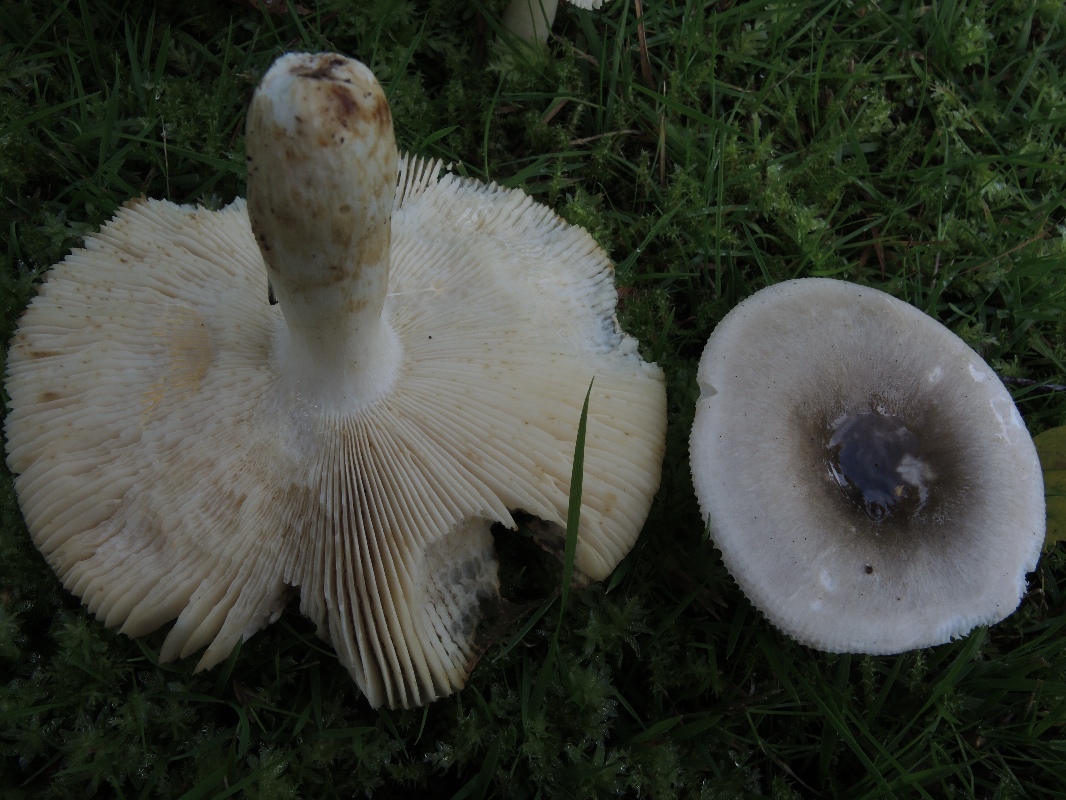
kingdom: Fungi
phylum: Basidiomycota
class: Agaricomycetes
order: Russulales
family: Russulaceae
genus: Russula
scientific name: Russula aeruginea
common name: græsgrøn skørhat
